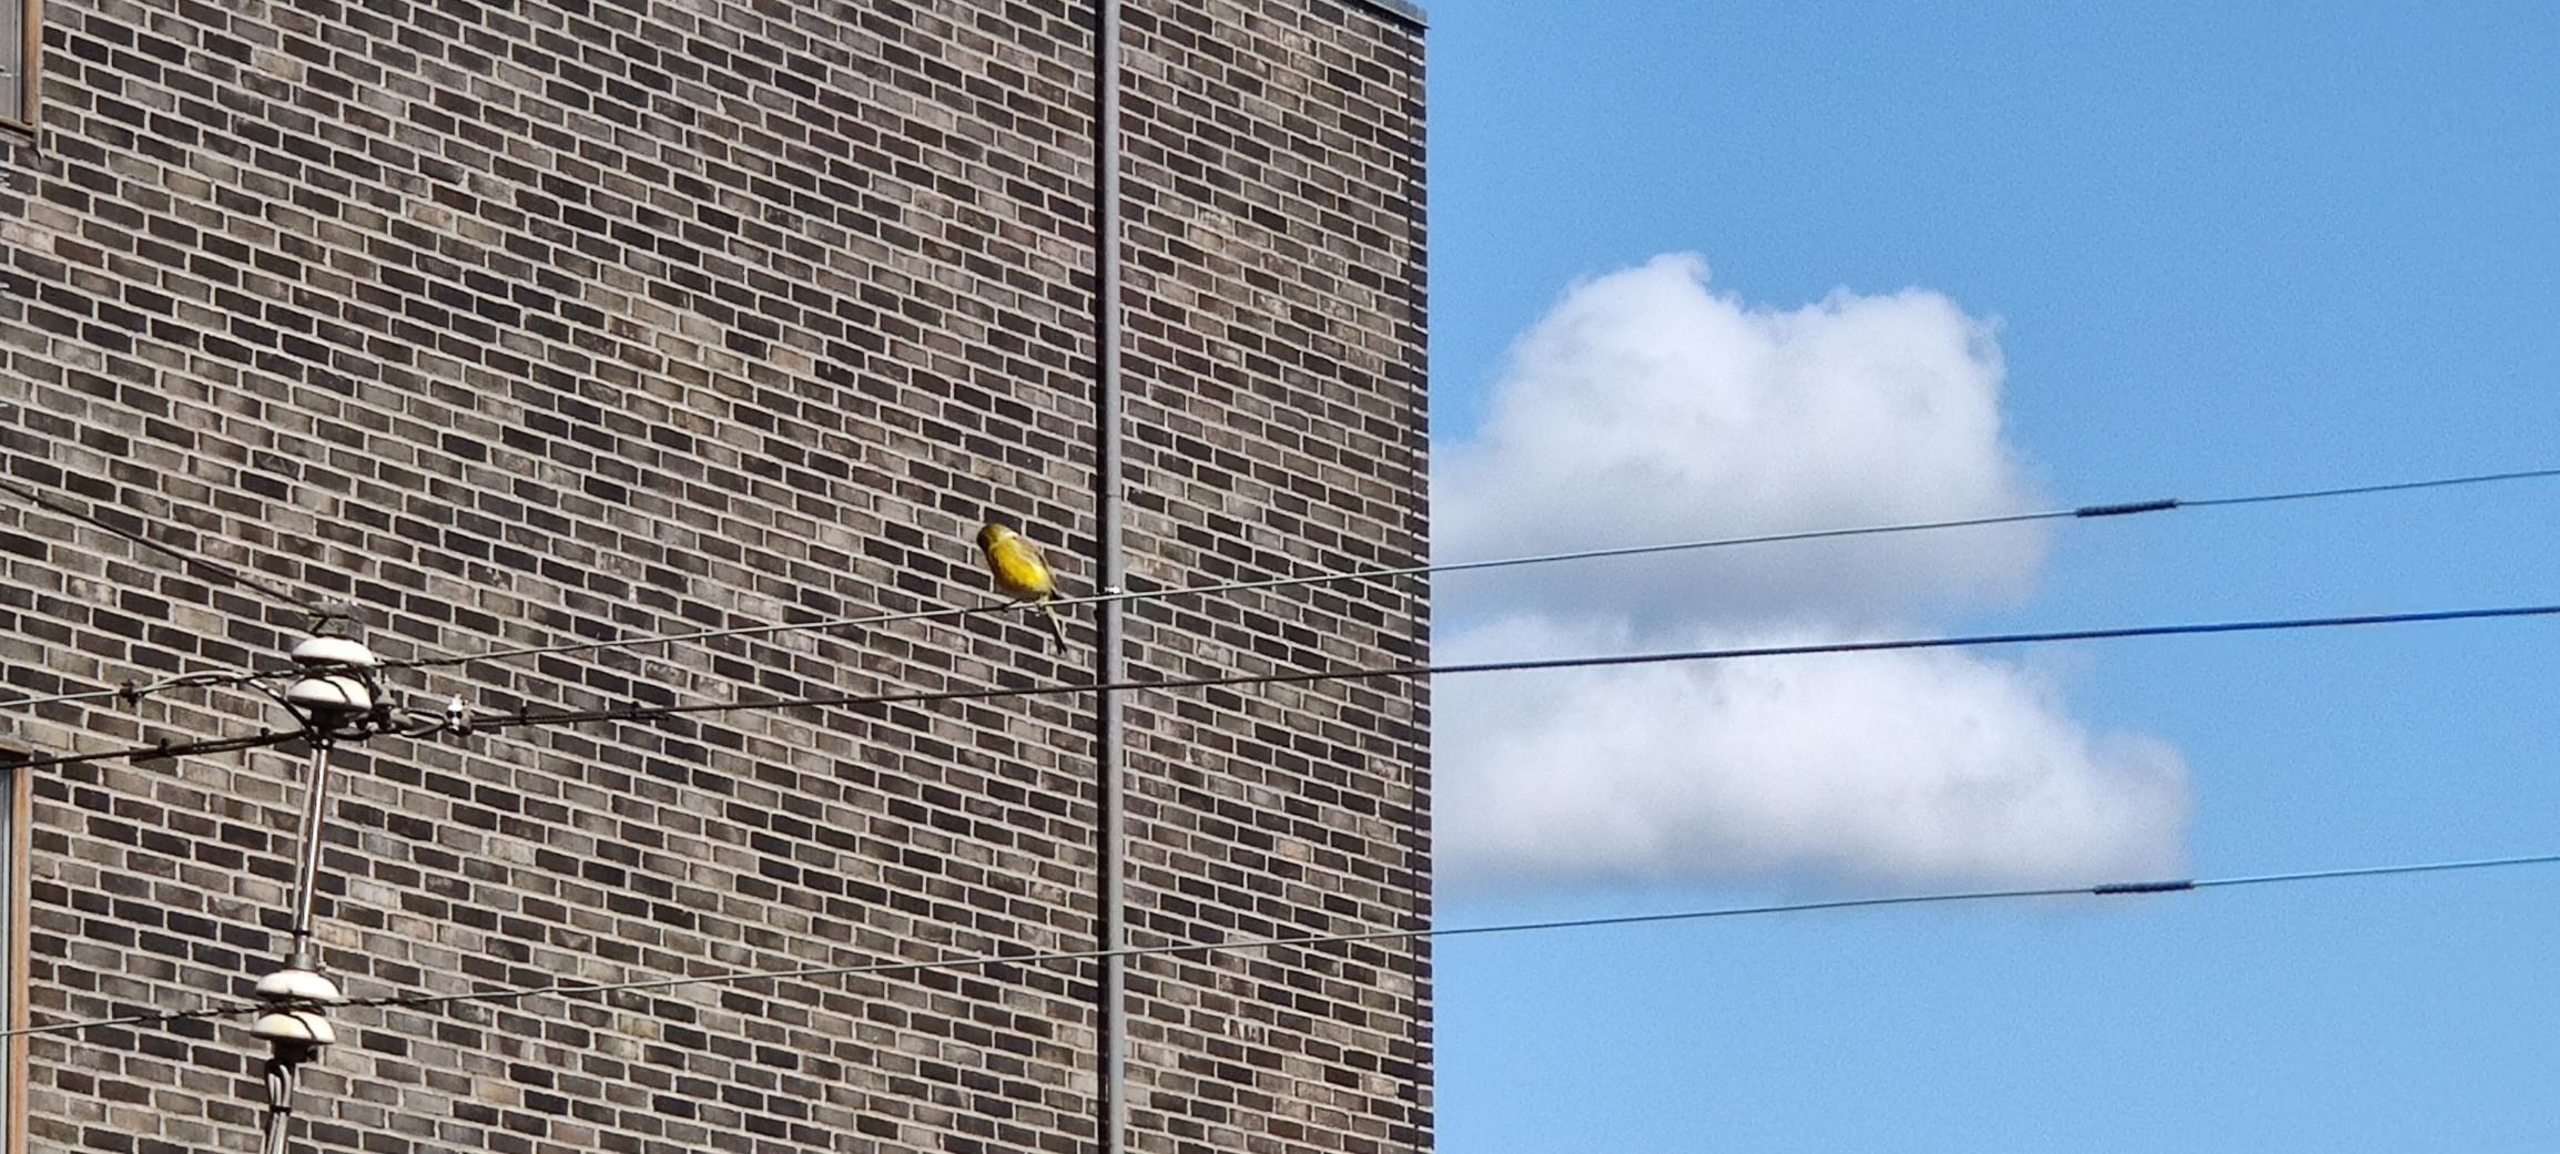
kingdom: Animalia
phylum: Chordata
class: Aves
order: Passeriformes
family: Emberizidae
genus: Emberiza
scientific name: Emberiza citrinella
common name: Gulspurv
